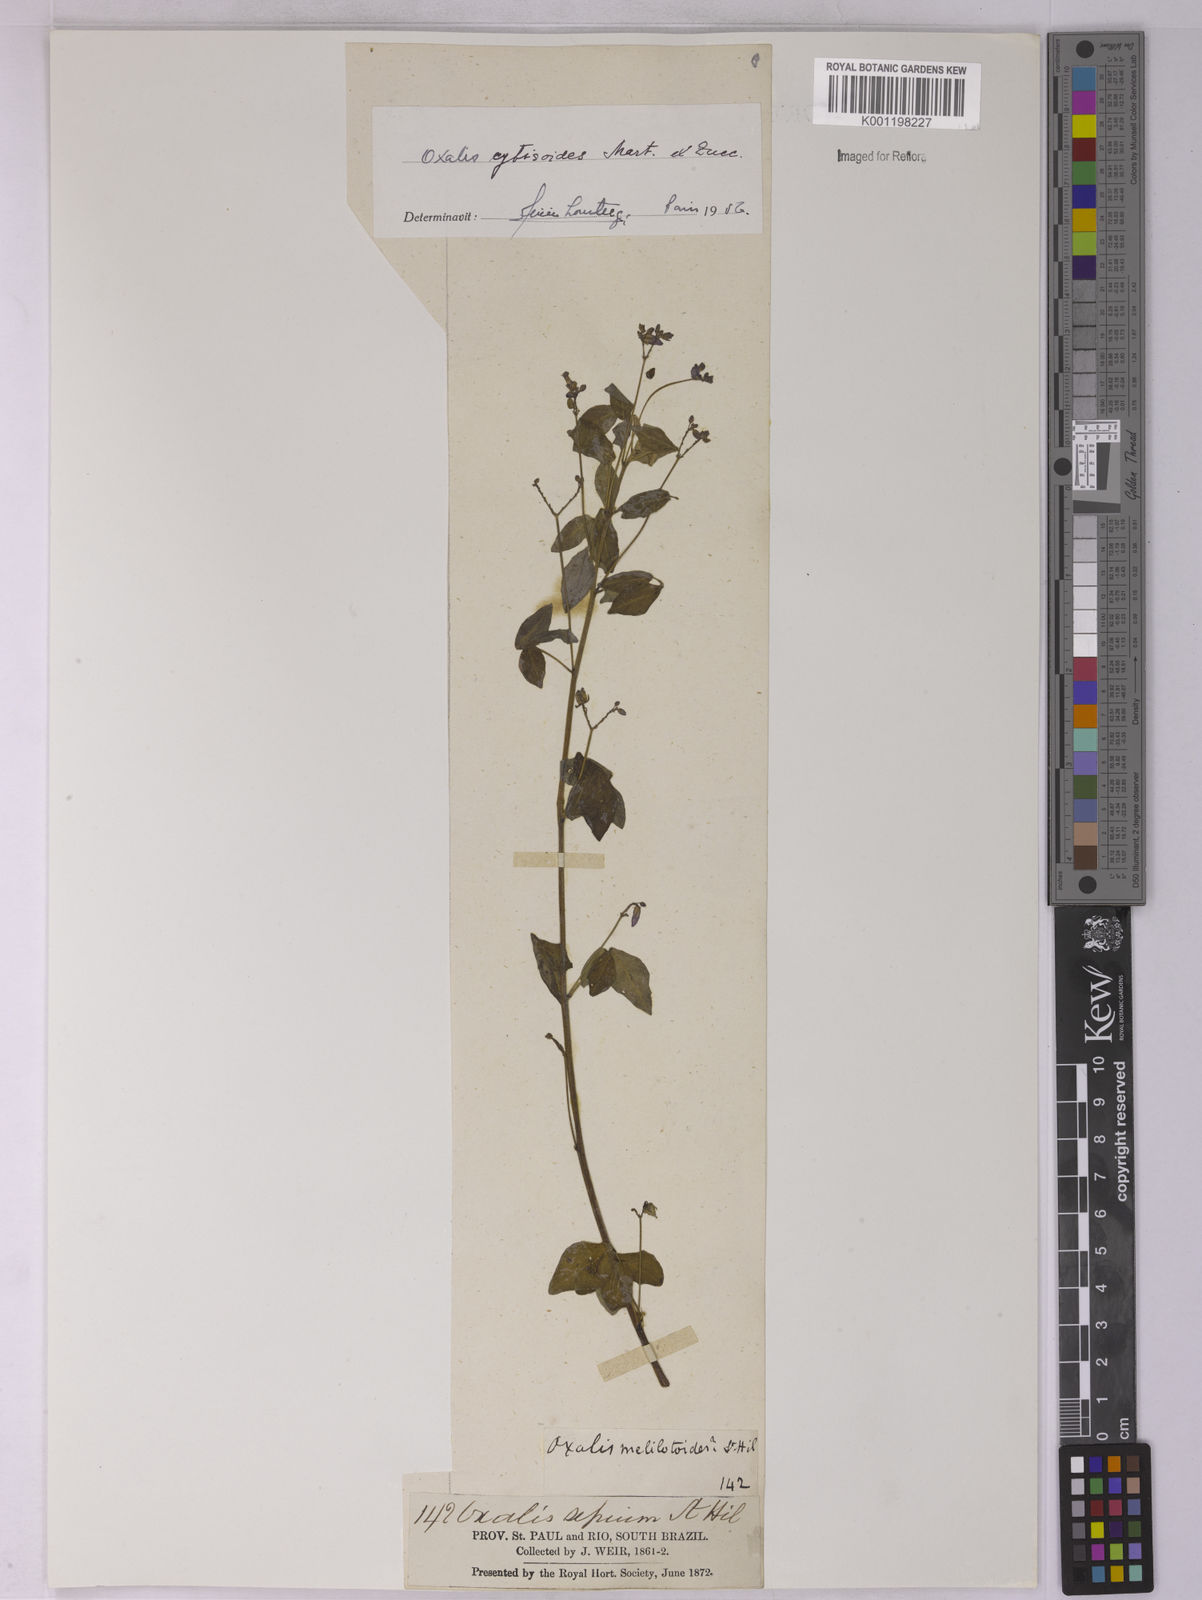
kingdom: Plantae
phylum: Tracheophyta
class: Magnoliopsida
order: Oxalidales
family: Oxalidaceae
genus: Oxalis
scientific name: Oxalis cytisoides
